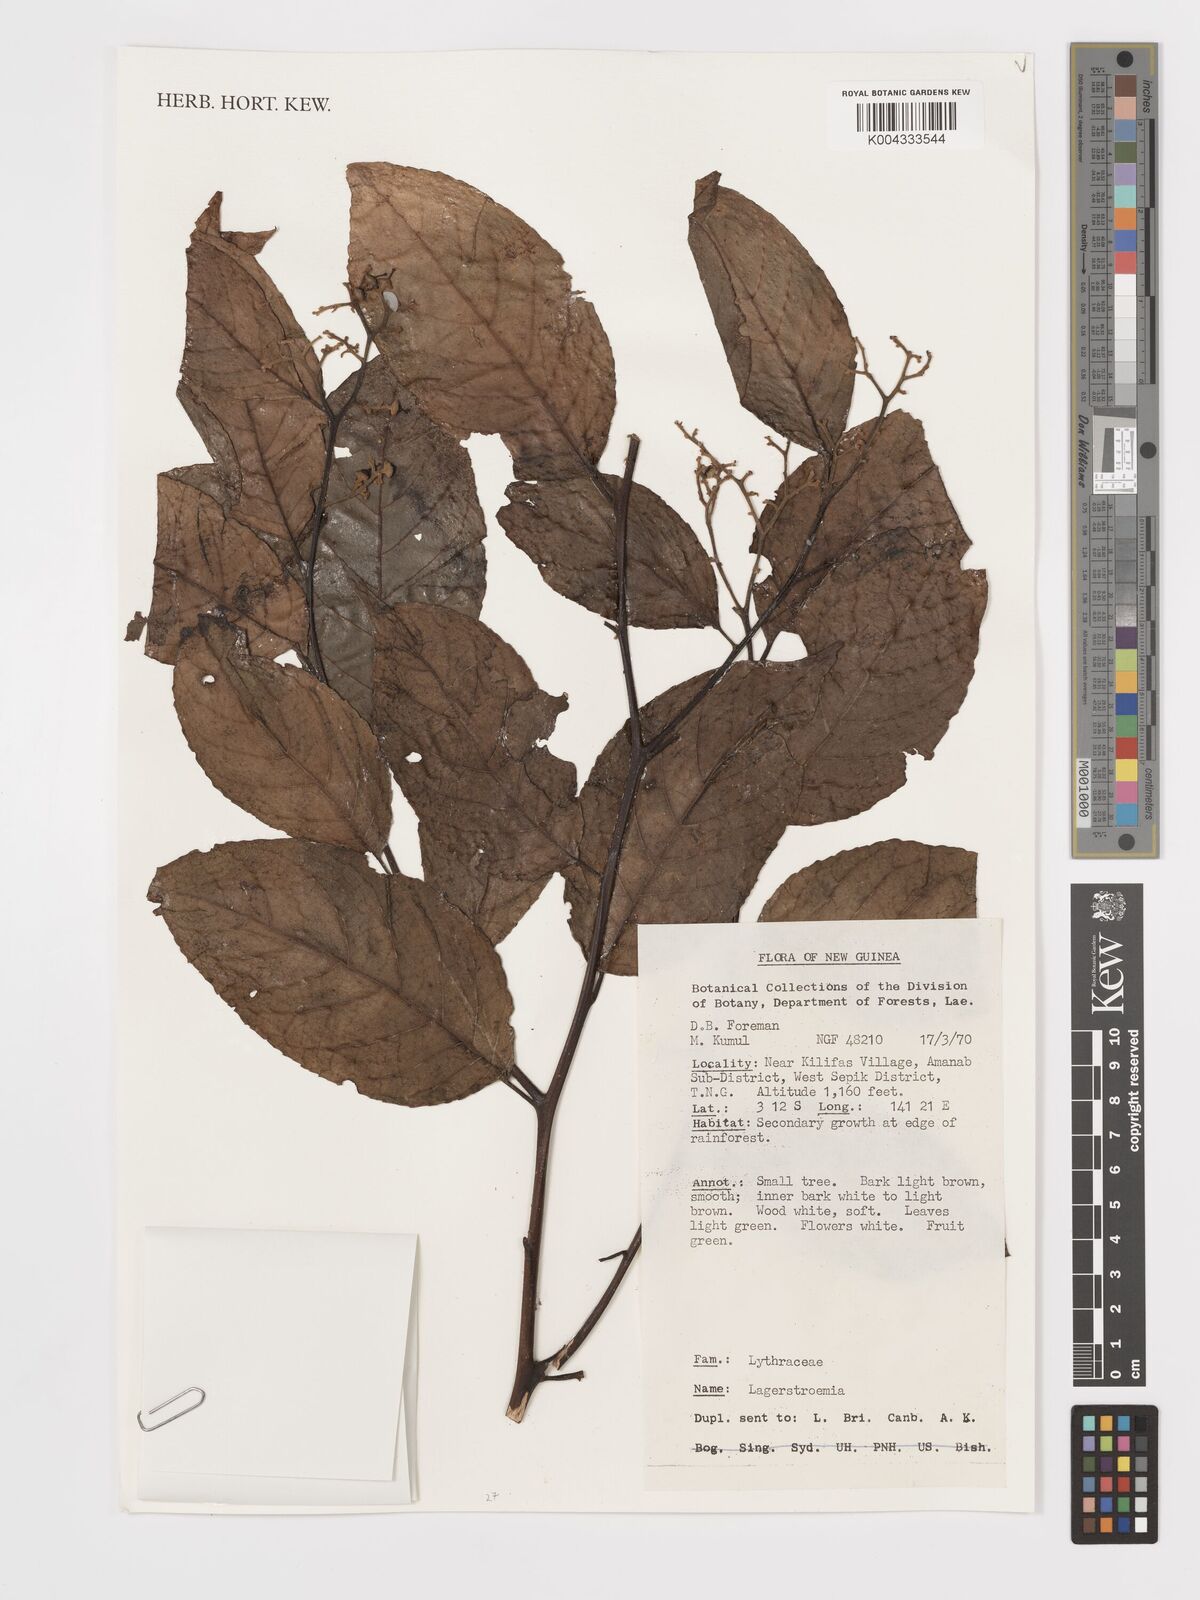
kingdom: Plantae
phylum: Tracheophyta
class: Magnoliopsida
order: Myrtales
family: Lythraceae
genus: Lagerstroemia
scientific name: Lagerstroemia
